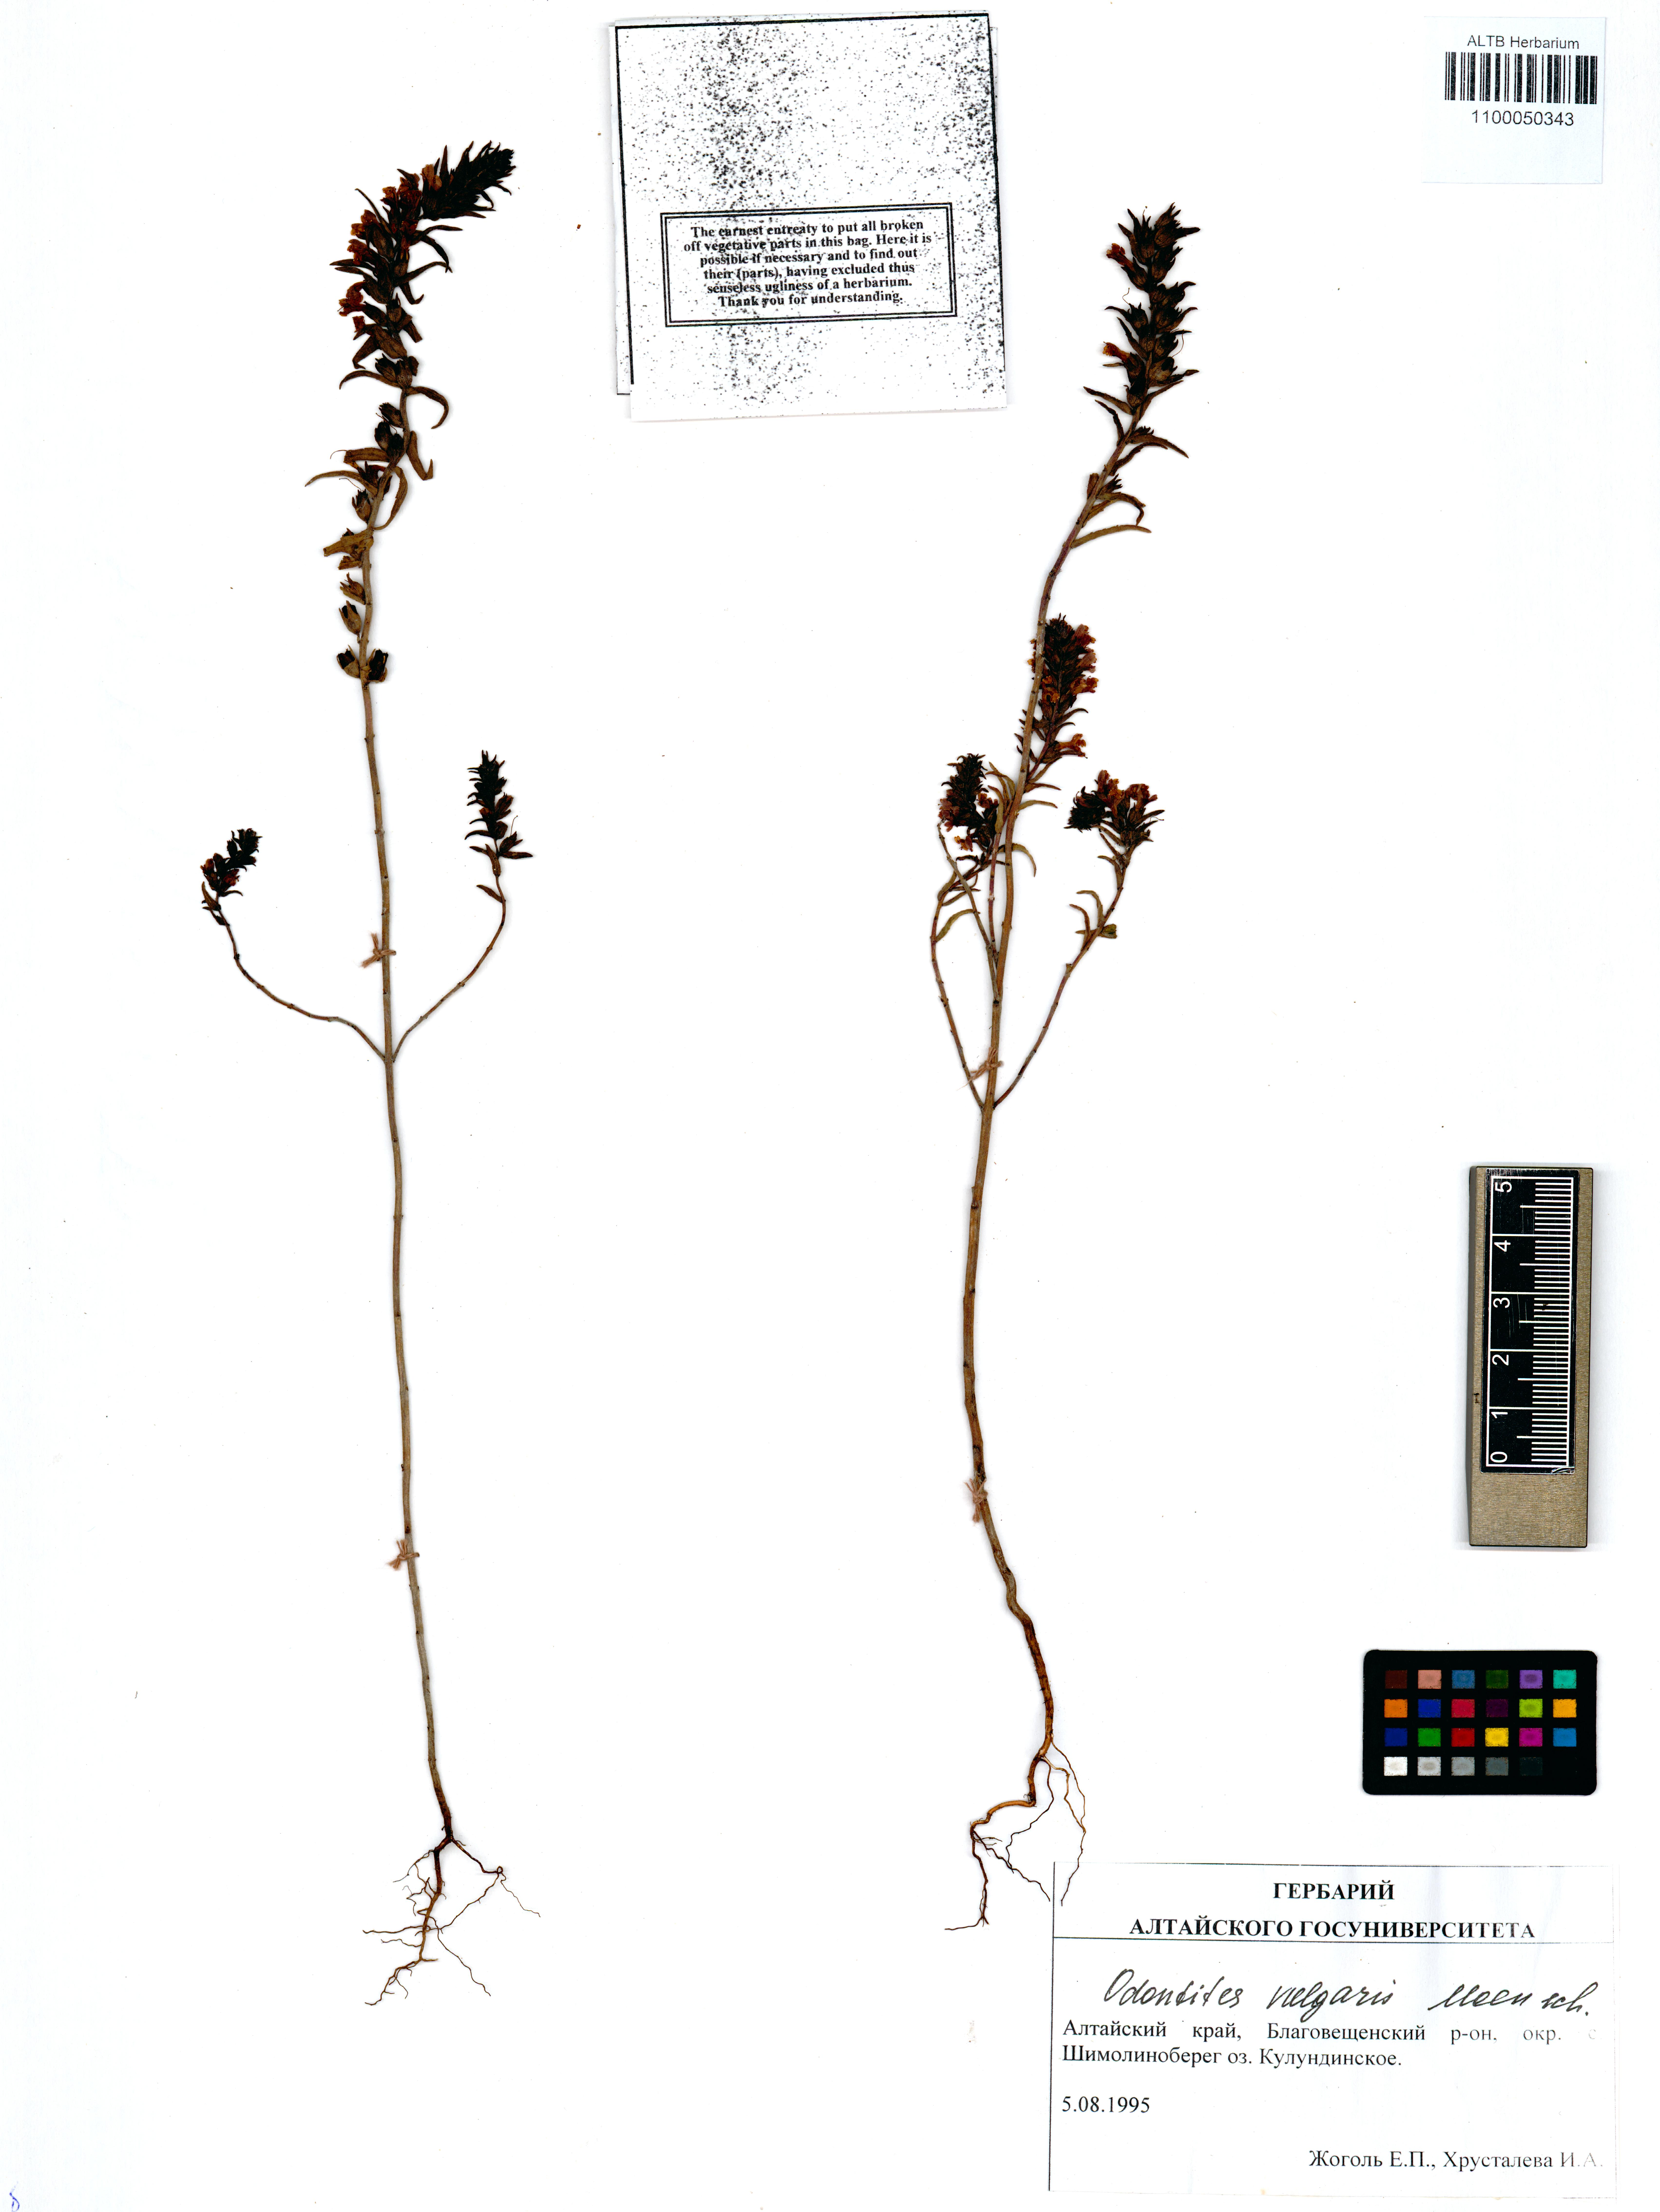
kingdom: Plantae
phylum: Tracheophyta
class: Magnoliopsida
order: Lamiales
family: Orobanchaceae
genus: Odontites
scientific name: Odontites vulgaris
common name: Broomrape
